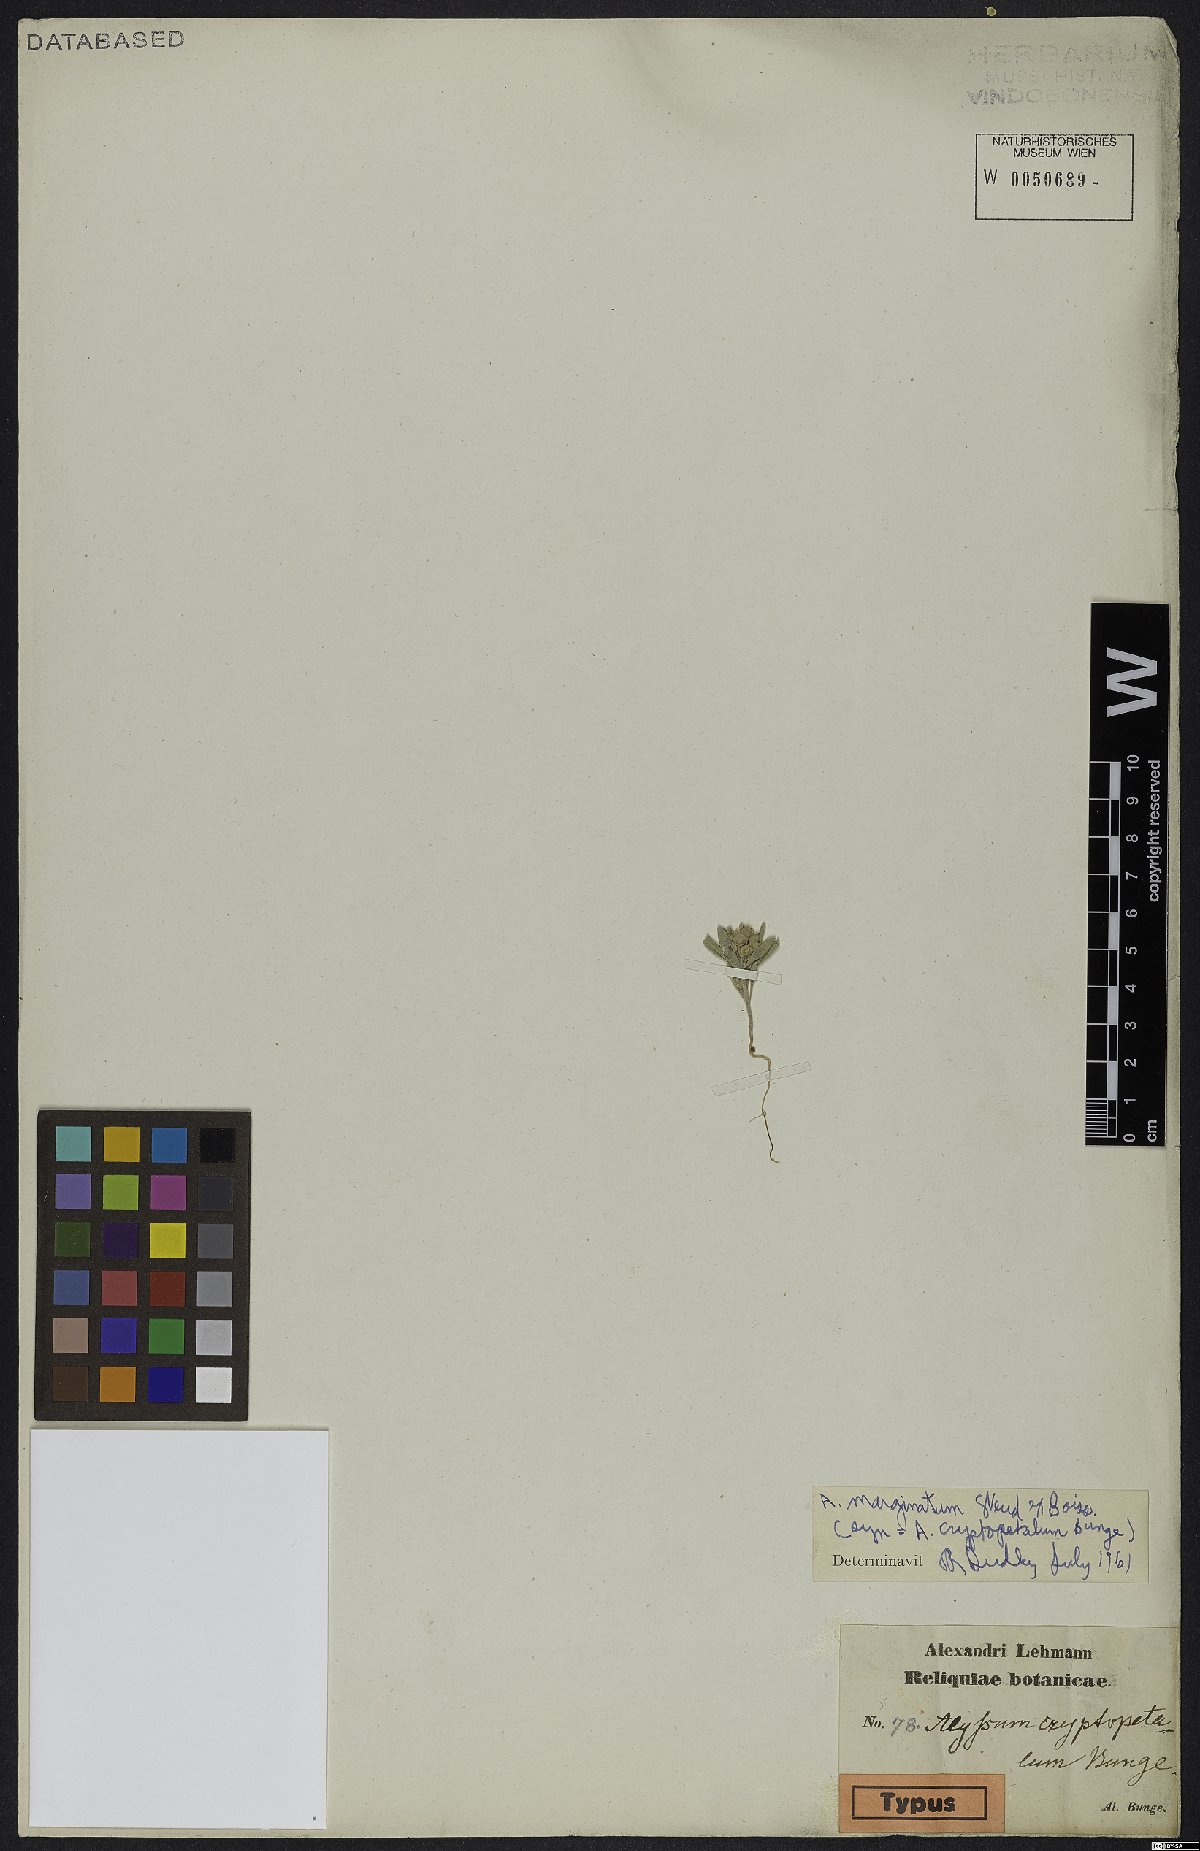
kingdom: Plantae
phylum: Tracheophyta
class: Magnoliopsida
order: Brassicales
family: Brassicaceae
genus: Alyssum
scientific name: Alyssum minutum
